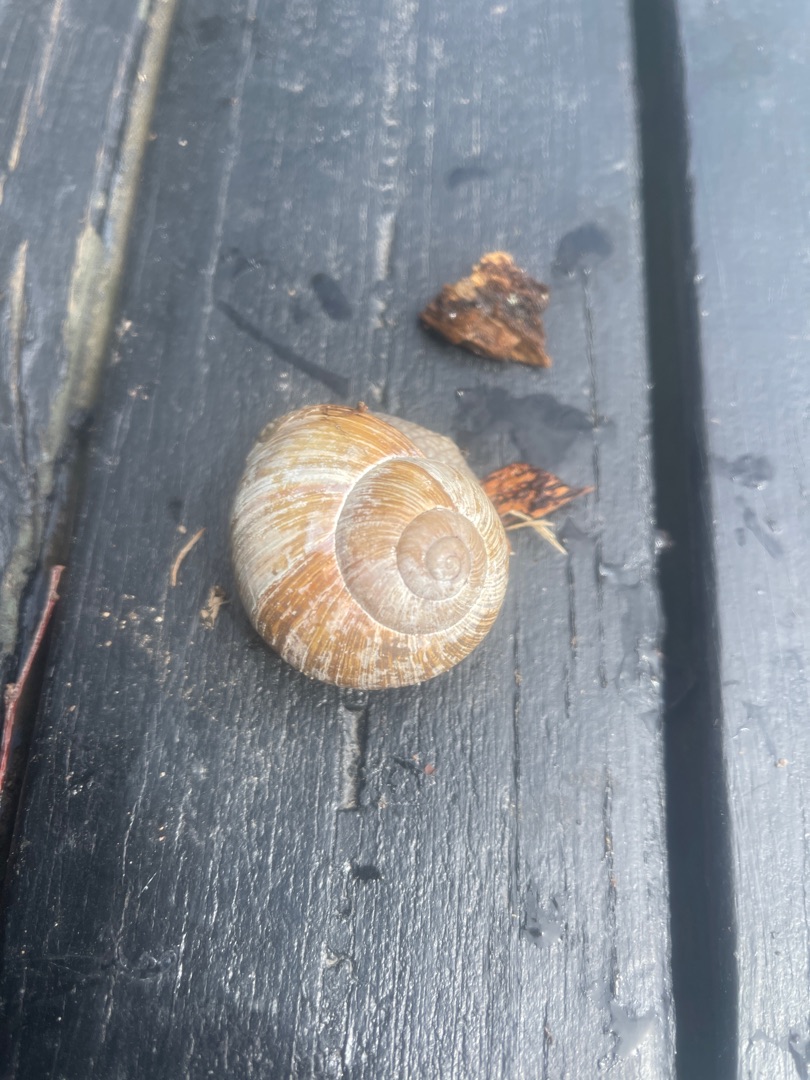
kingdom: Animalia
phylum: Mollusca
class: Gastropoda
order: Stylommatophora
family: Helicidae
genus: Helix
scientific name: Helix pomatia
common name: Vinbjergsnegl
